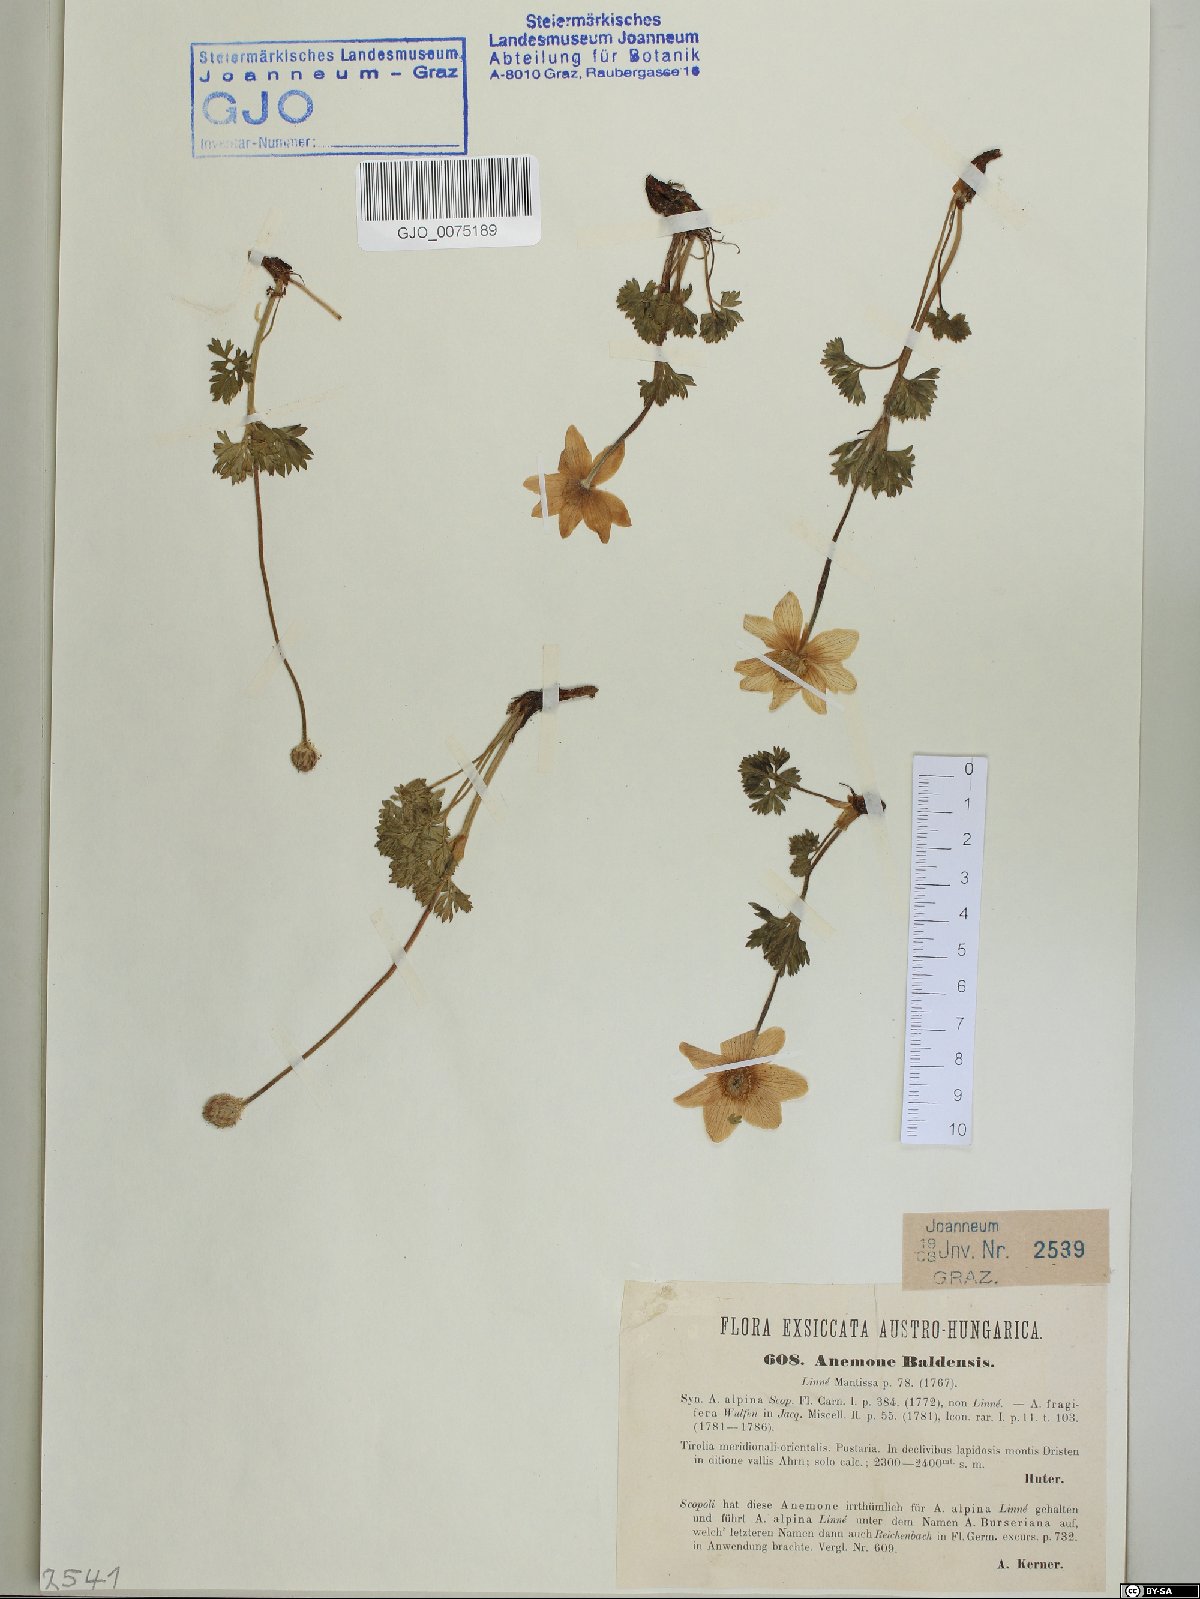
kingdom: Plantae
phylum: Tracheophyta
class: Magnoliopsida
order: Ranunculales
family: Ranunculaceae
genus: Anemone
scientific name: Anemone baldensis
